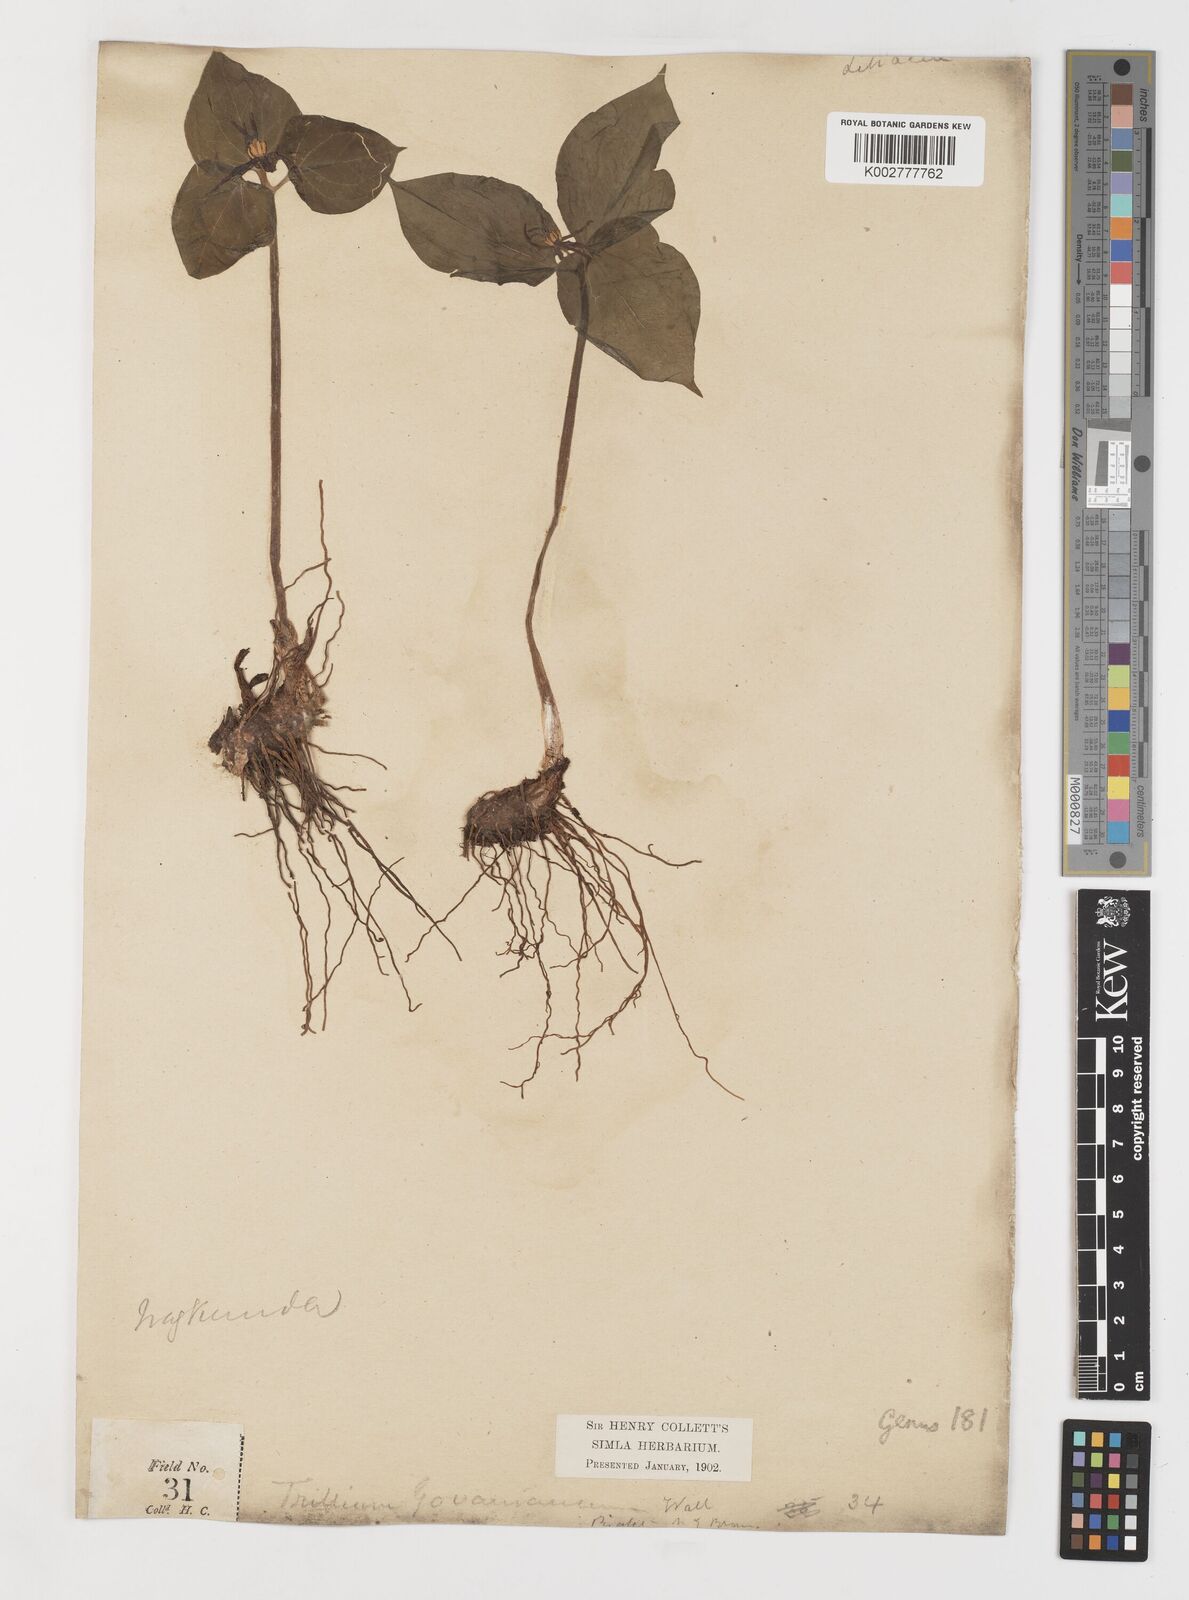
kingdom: Plantae
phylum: Tracheophyta
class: Liliopsida
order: Liliales
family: Melanthiaceae
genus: Trillium
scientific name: Trillium govanianum
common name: Himalayan trillium
